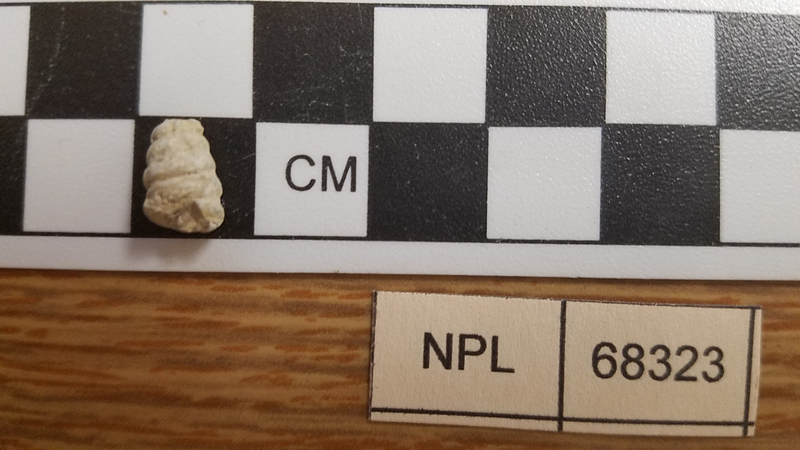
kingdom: Animalia
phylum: Mollusca
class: Gastropoda
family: Nerineidae
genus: Nerinea
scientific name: Nerinea
